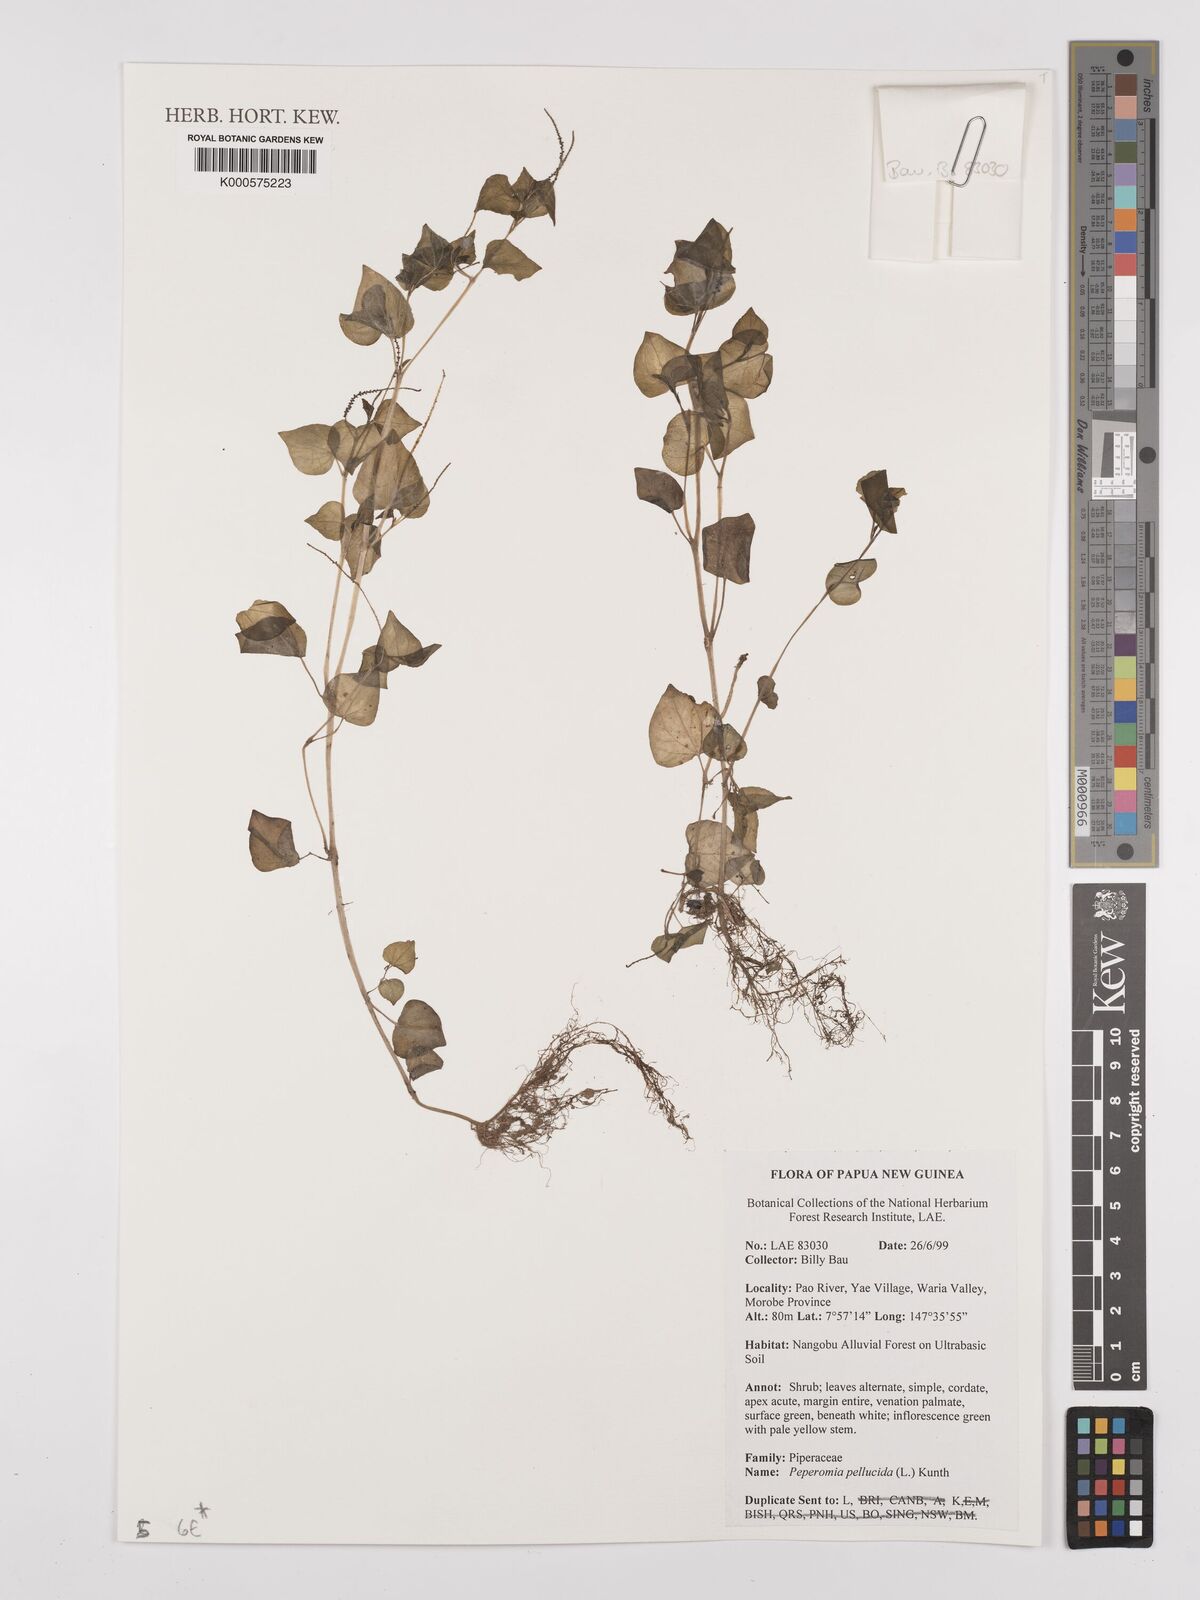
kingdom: Plantae
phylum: Tracheophyta
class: Magnoliopsida
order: Piperales
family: Piperaceae
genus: Peperomia
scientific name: Peperomia pellucida
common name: Man to man
